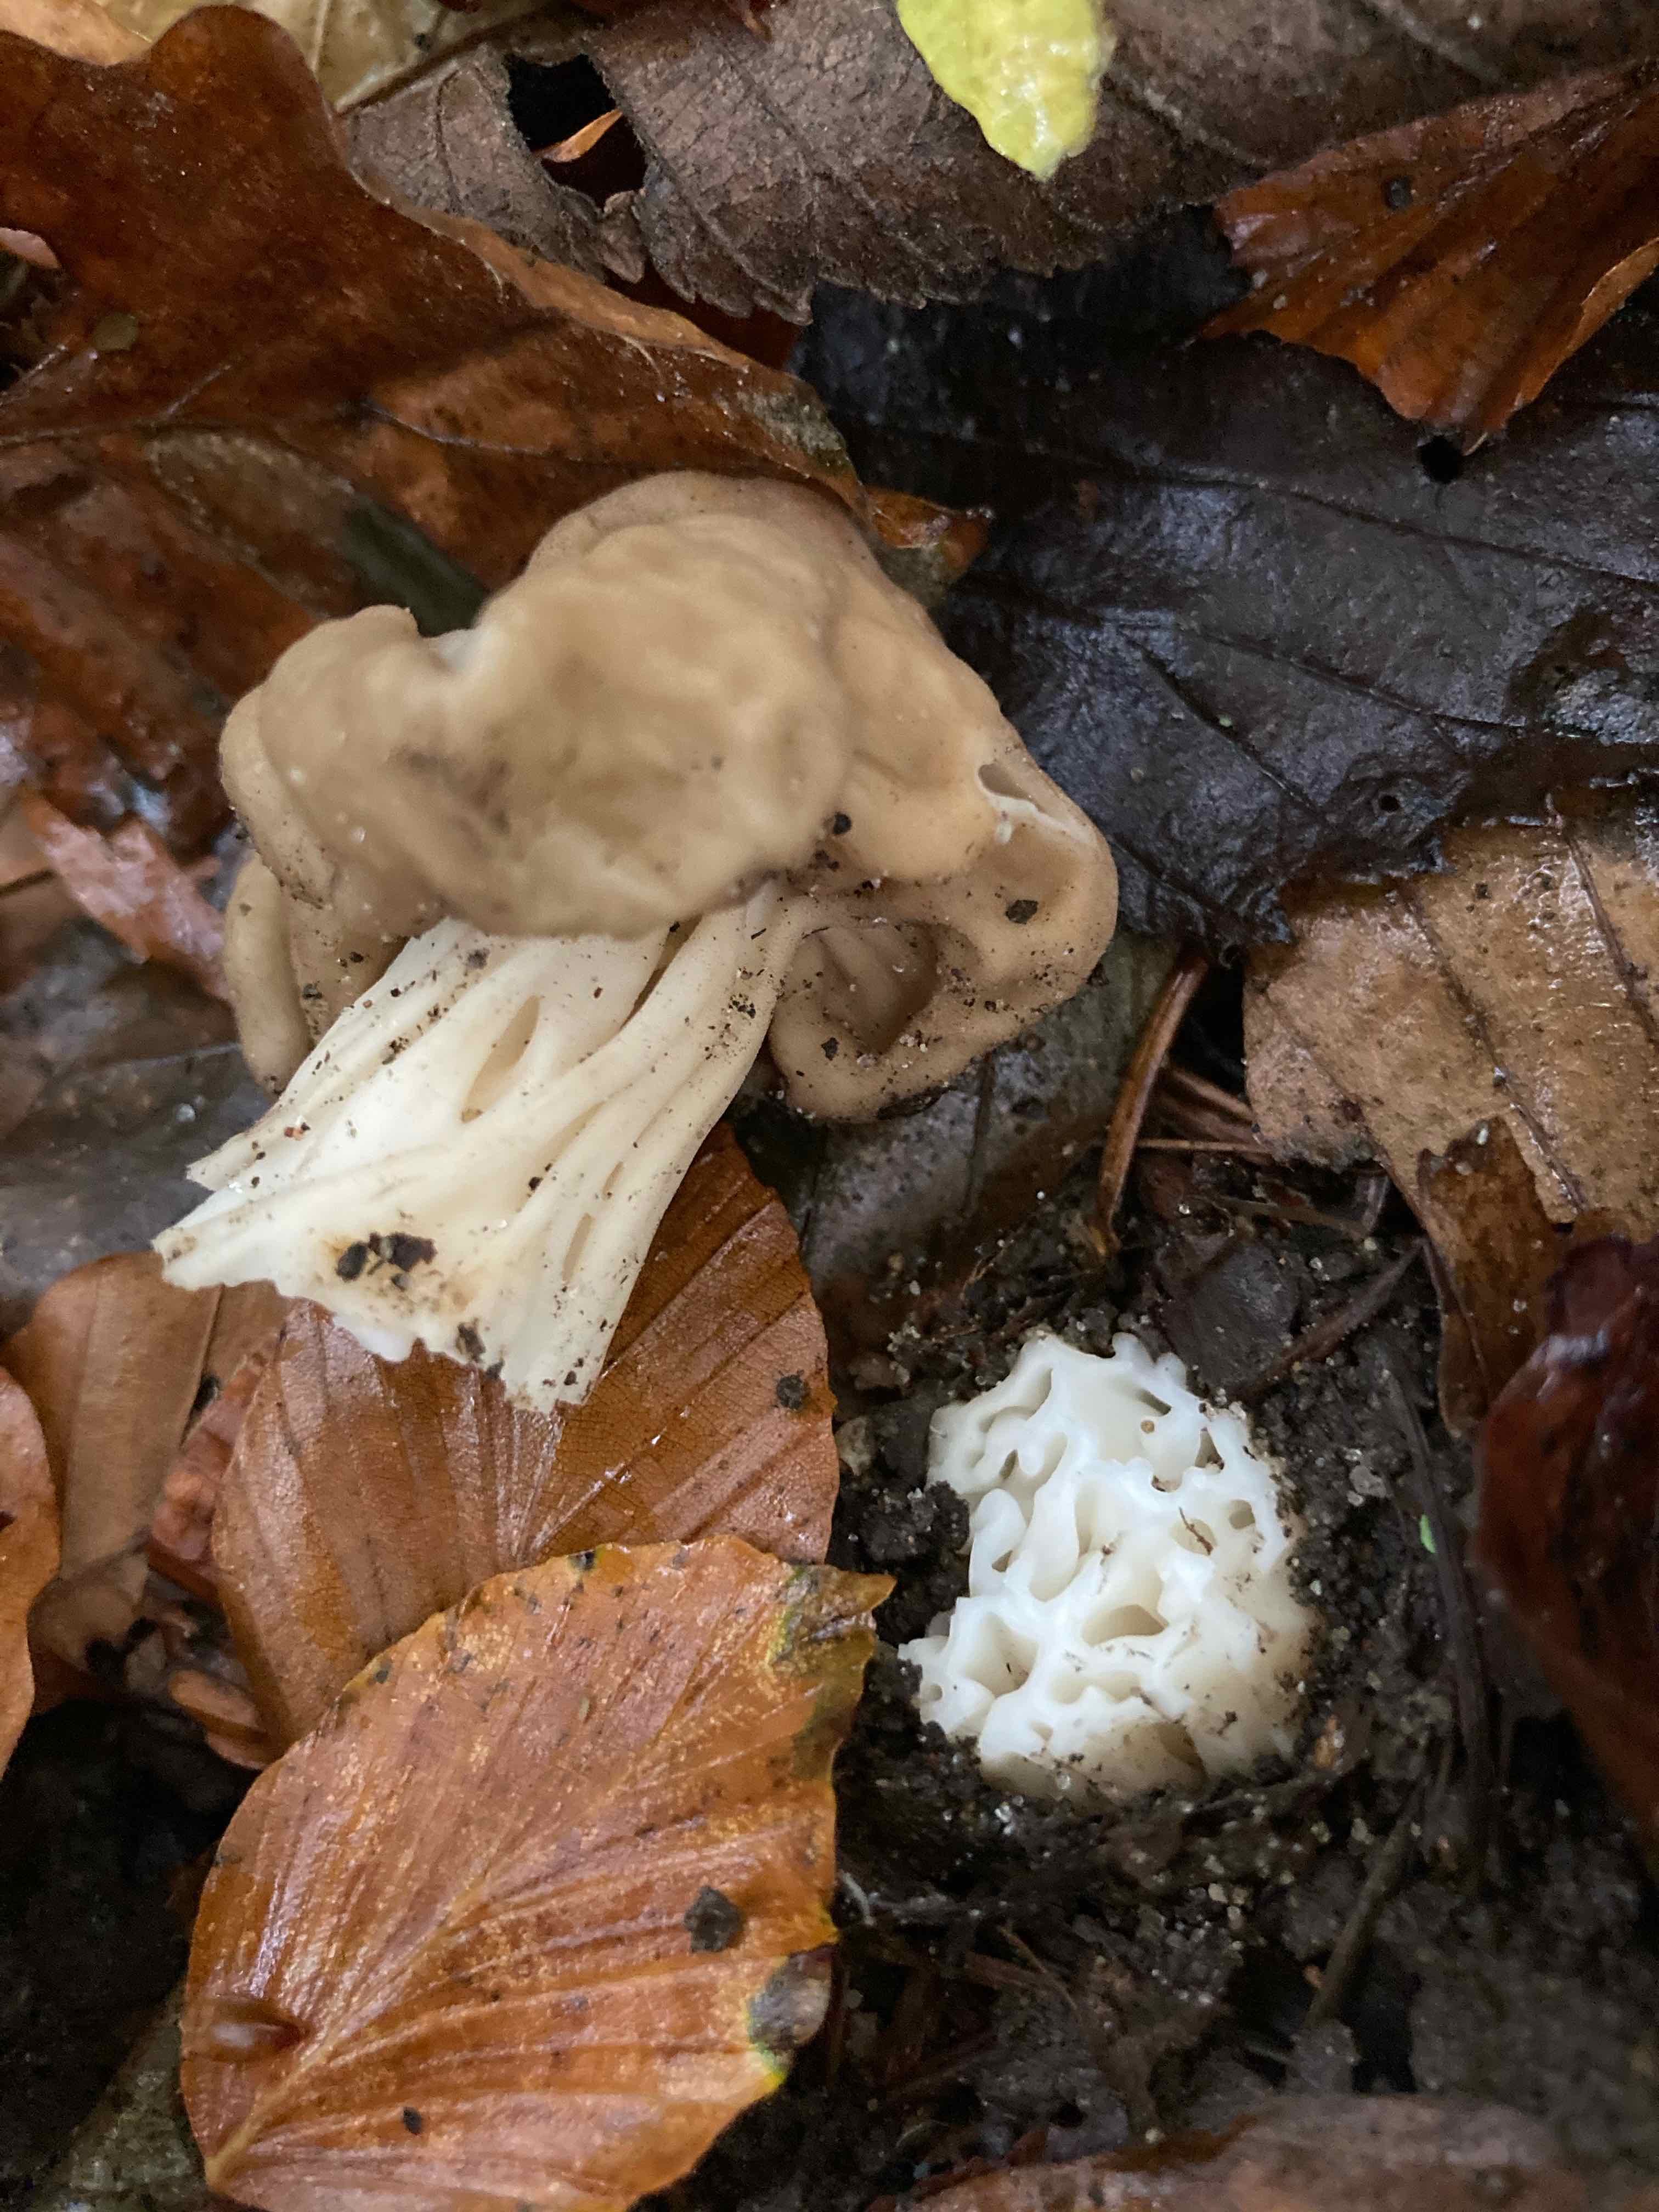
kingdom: Fungi
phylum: Ascomycota
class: Pezizomycetes
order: Pezizales
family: Helvellaceae
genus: Helvella
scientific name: Helvella crispa
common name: kruset foldhat
